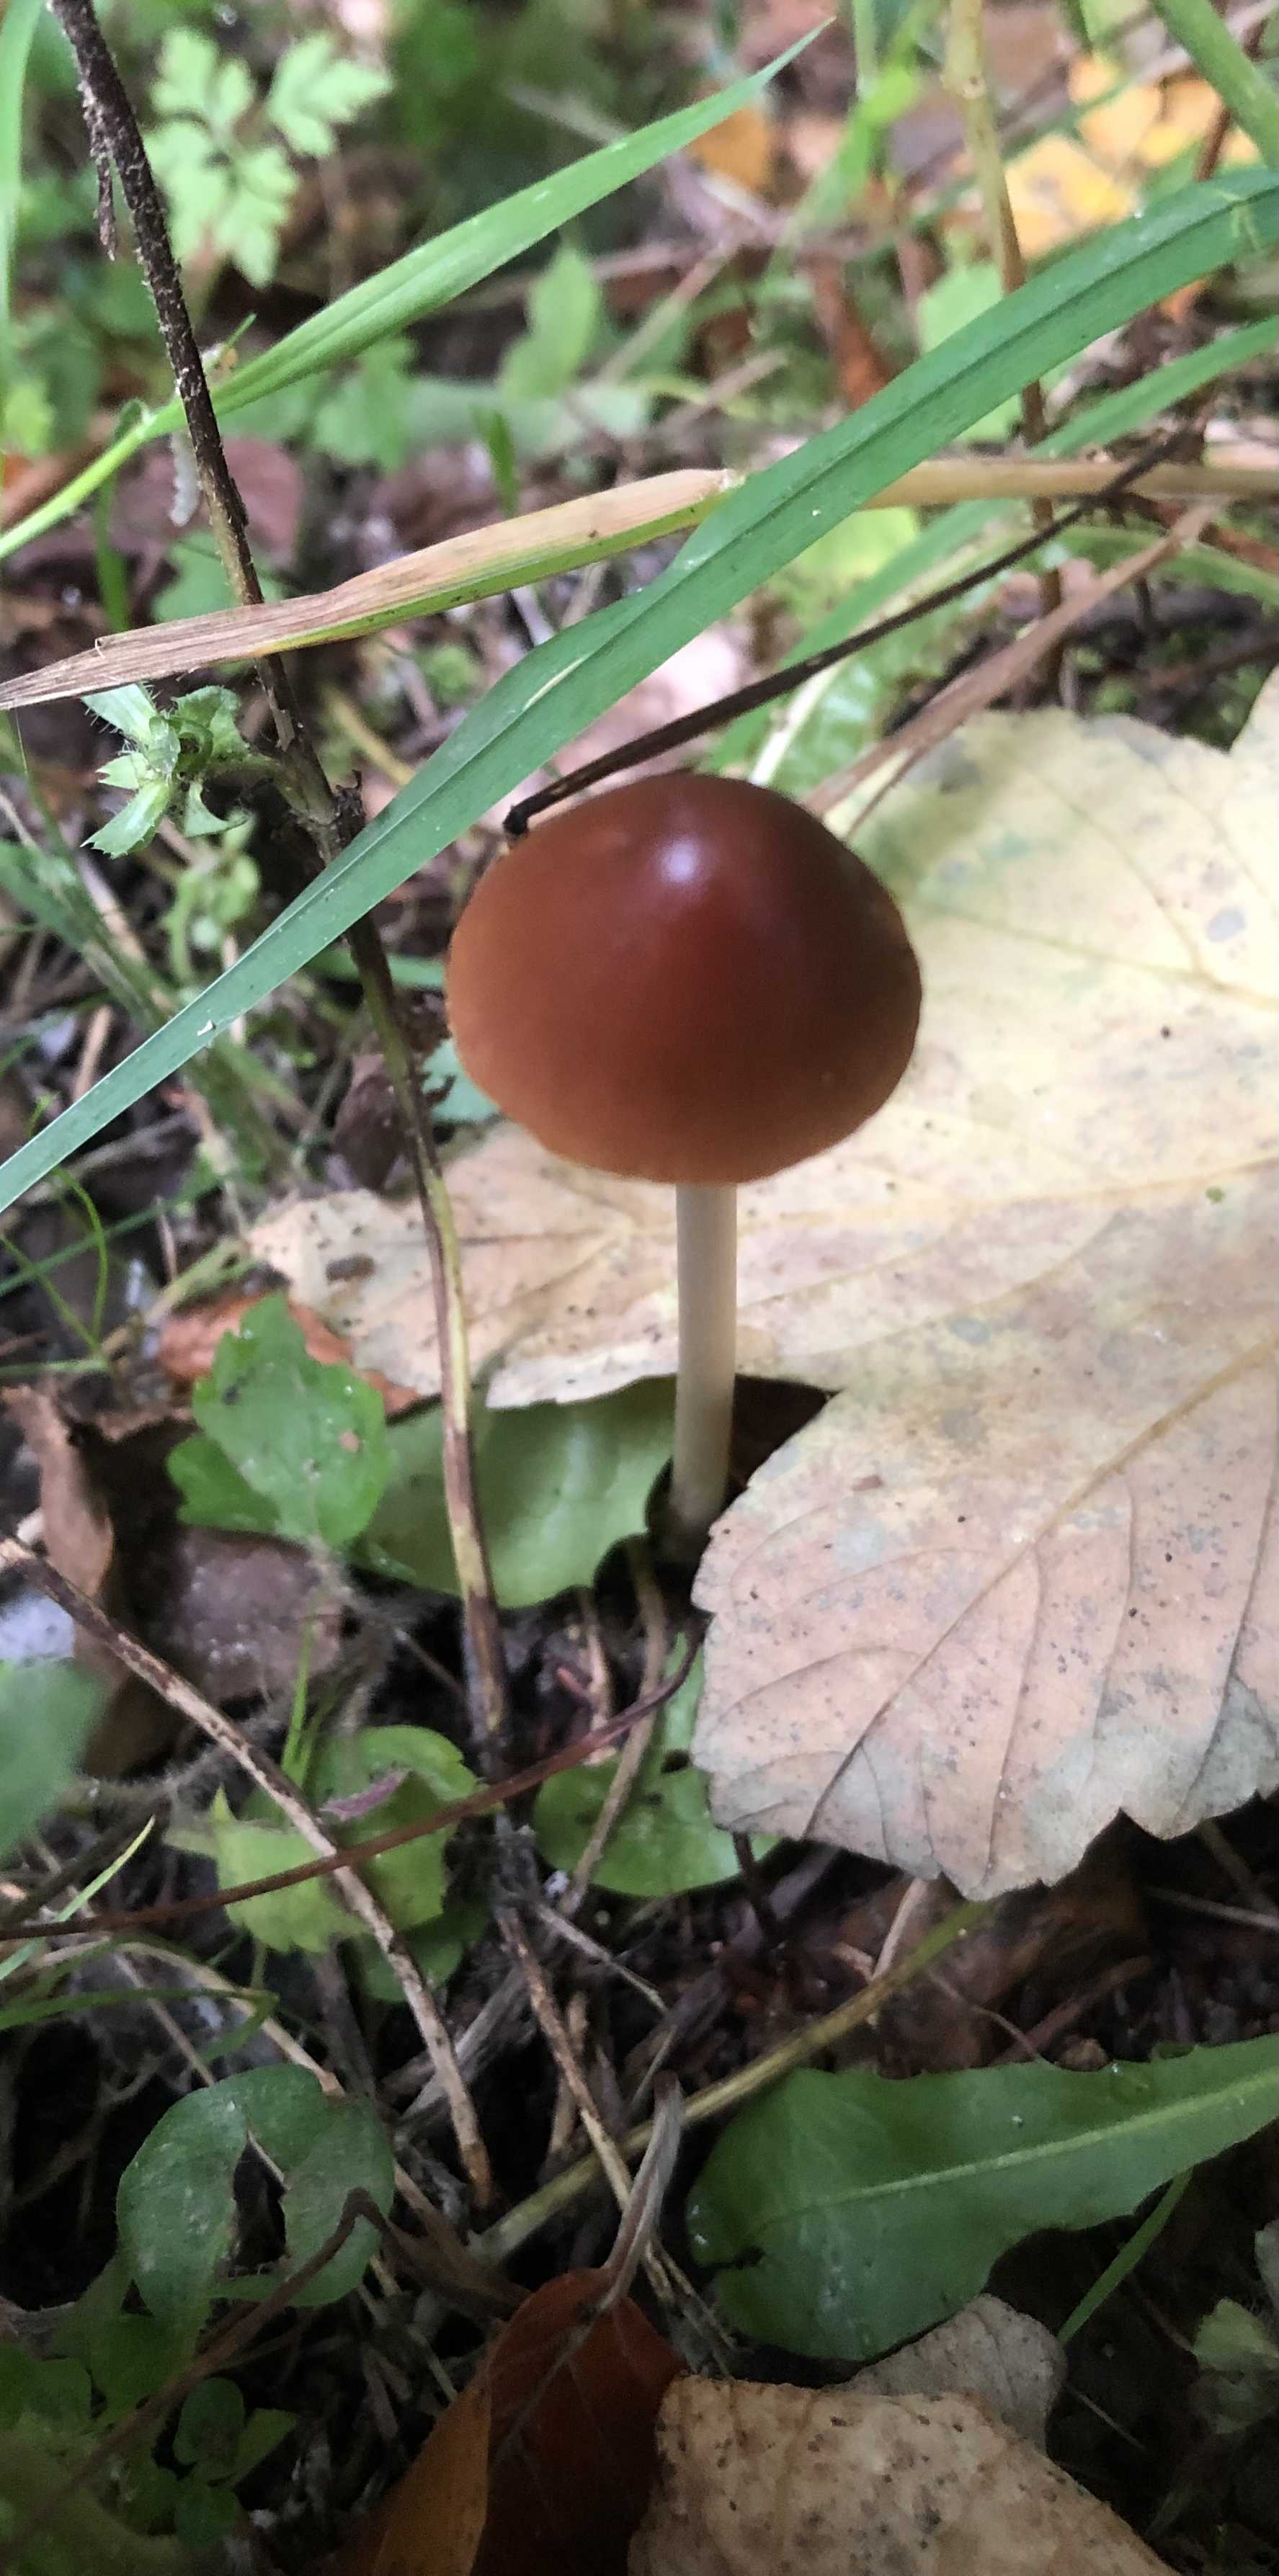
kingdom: Fungi
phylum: Basidiomycota
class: Agaricomycetes
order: Agaricales
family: Psathyrellaceae
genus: Parasola
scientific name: Parasola conopilea
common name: kegle-hjulhat
